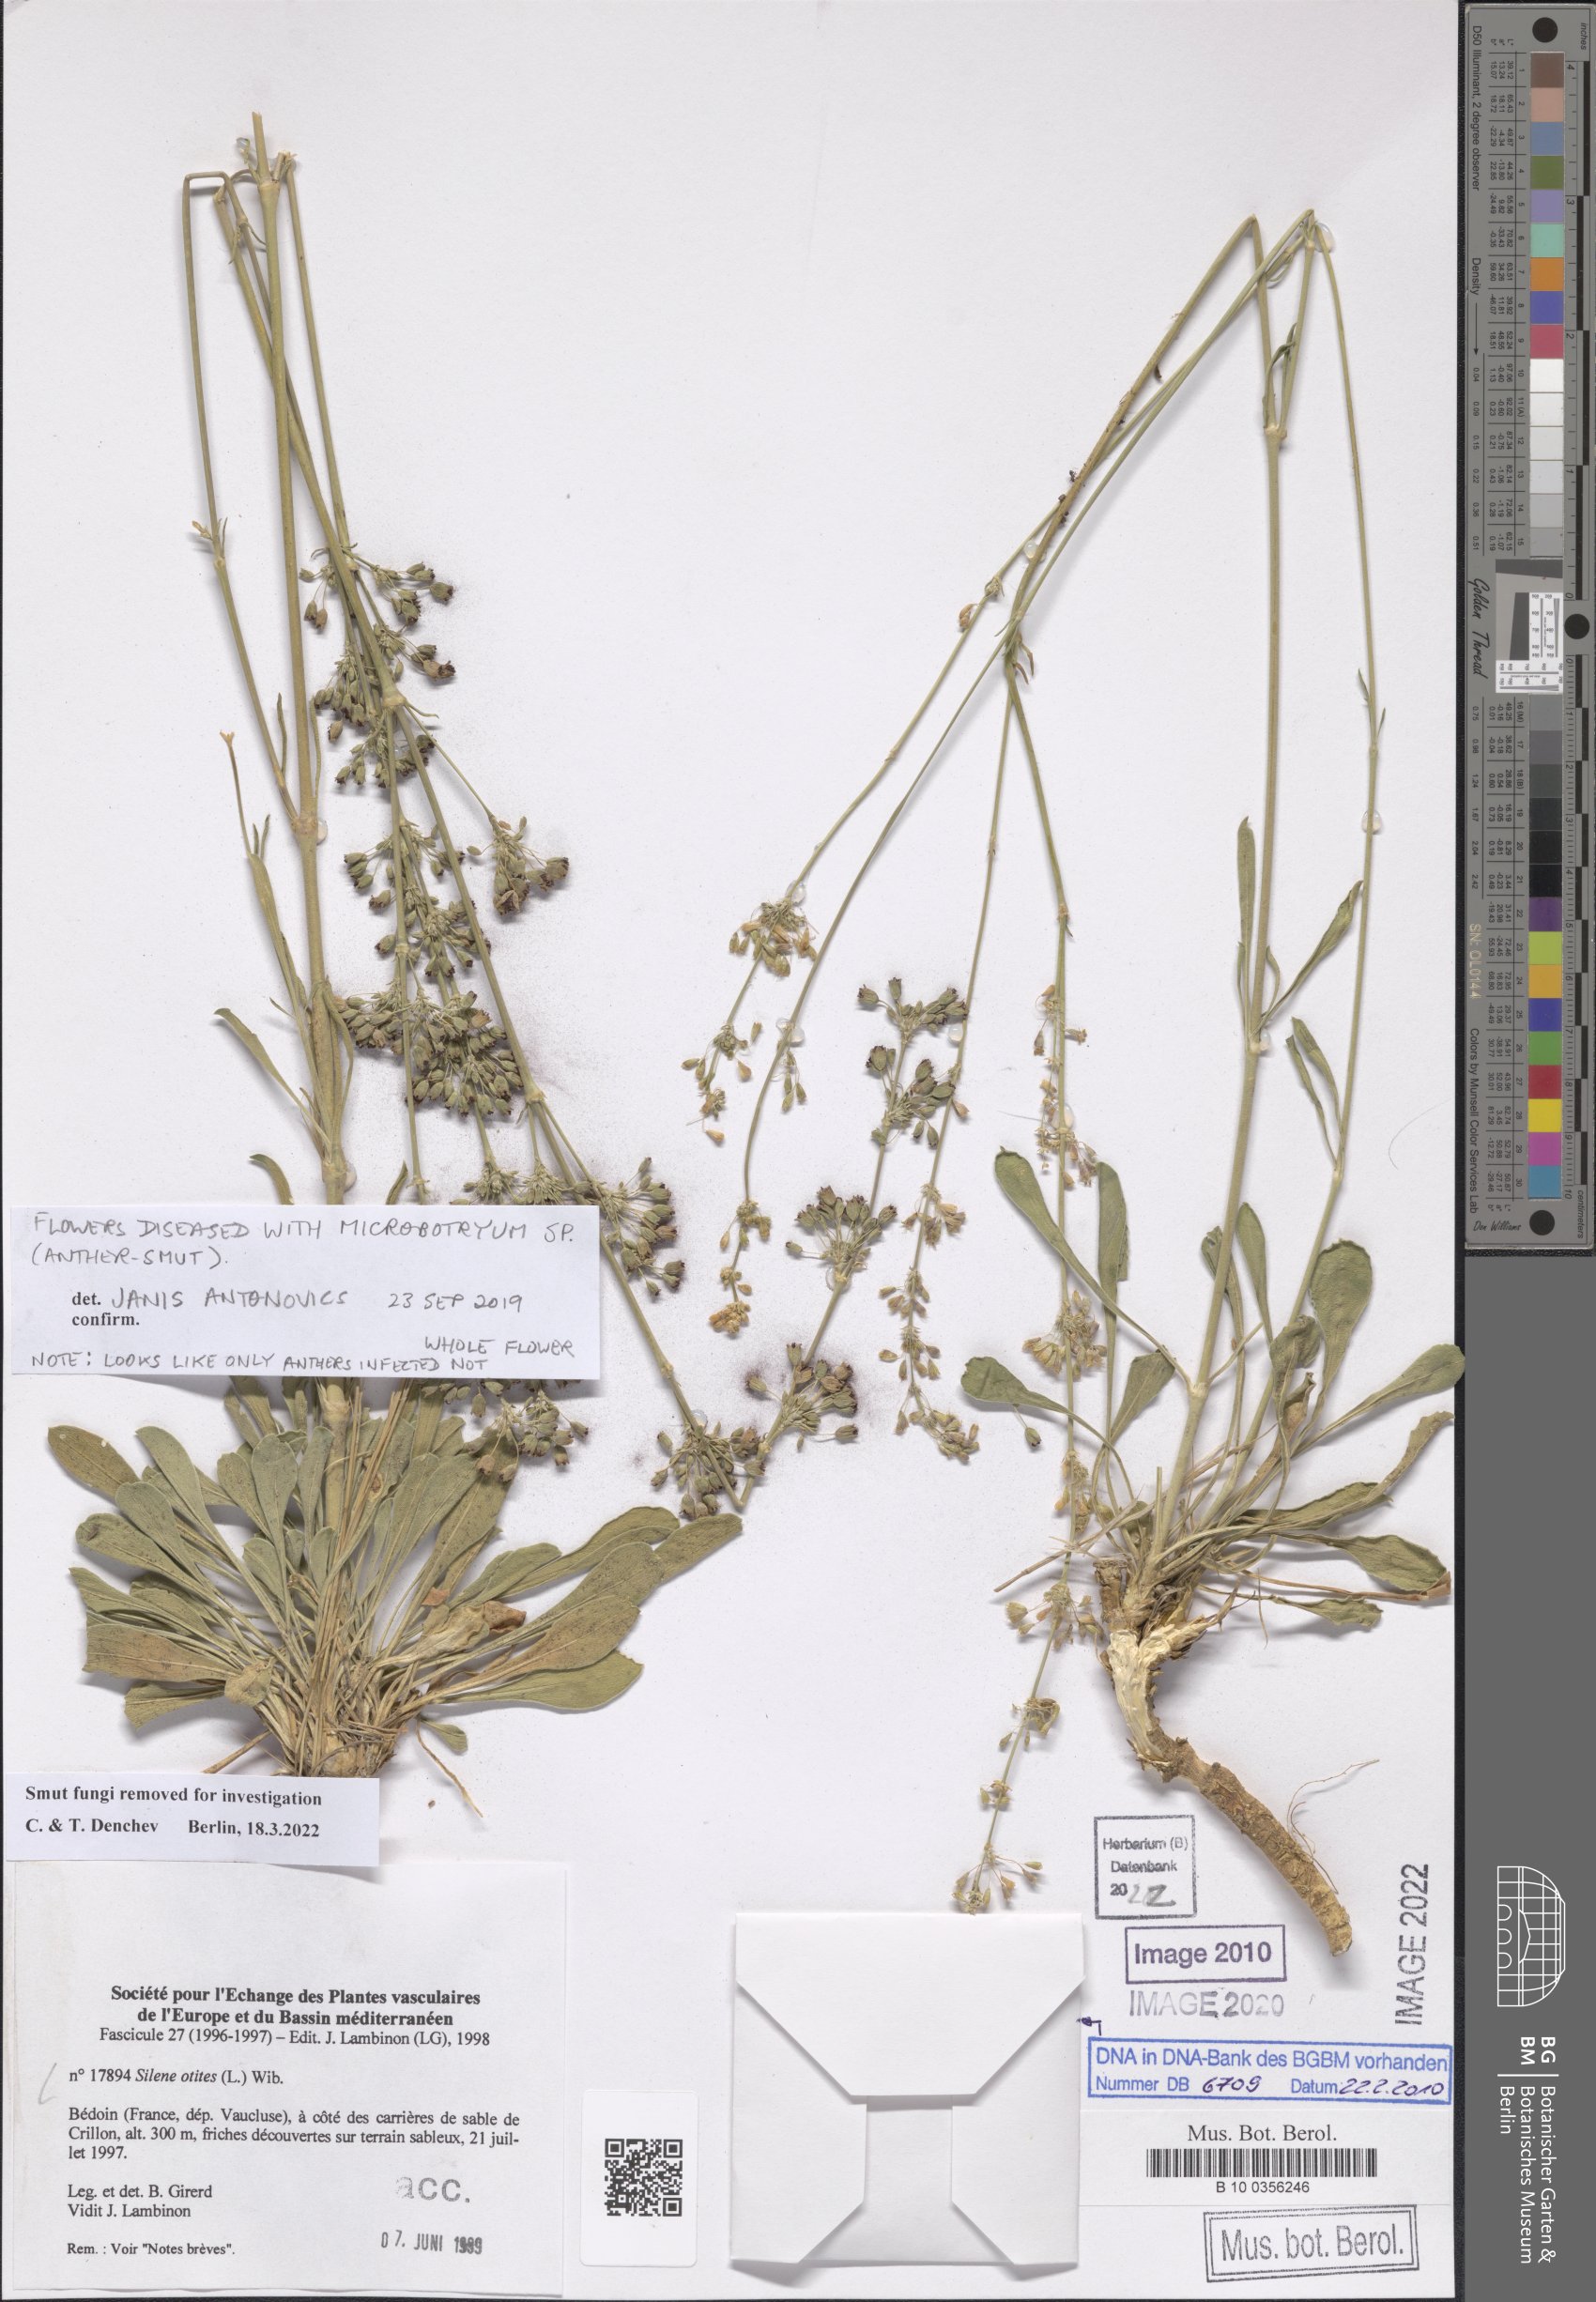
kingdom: Plantae
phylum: Tracheophyta
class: Magnoliopsida
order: Caryophyllales
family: Caryophyllaceae
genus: Silene
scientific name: Silene otites
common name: Spanish catchfly
